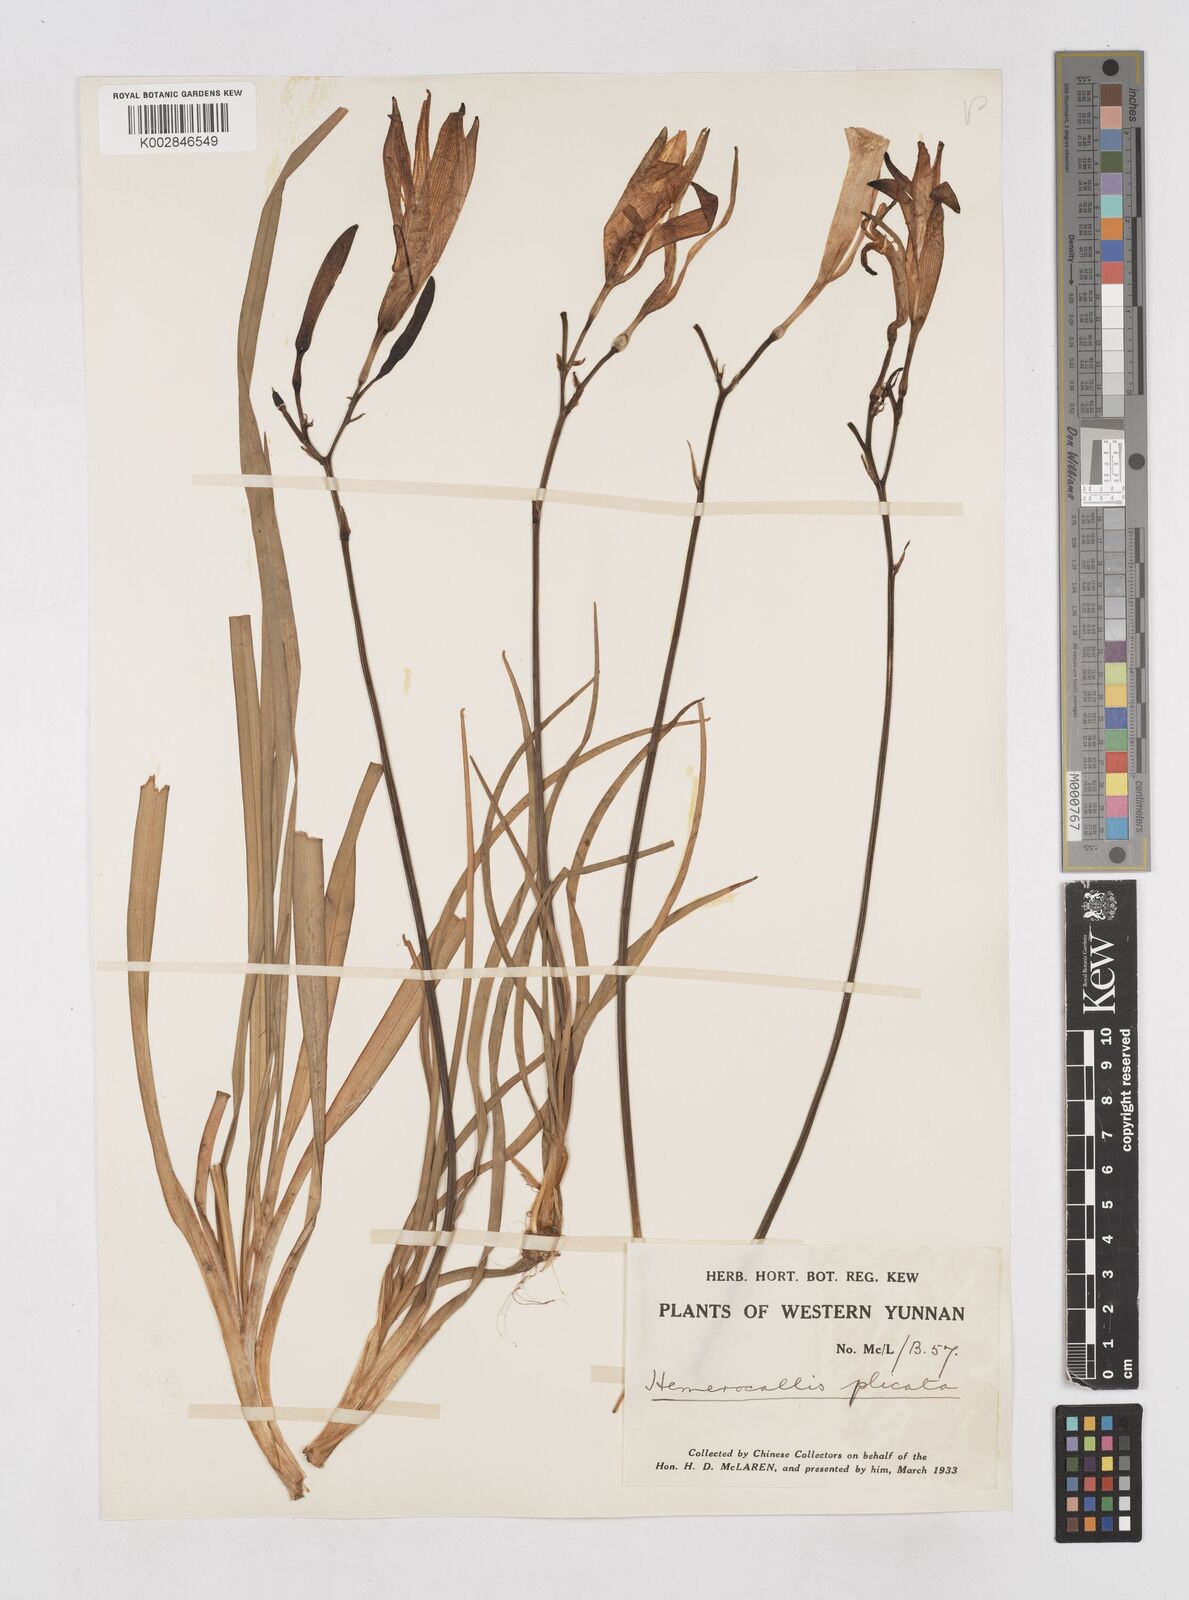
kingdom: Plantae
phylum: Tracheophyta
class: Liliopsida
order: Asparagales
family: Asphodelaceae
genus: Hemerocallis
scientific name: Hemerocallis plicata
